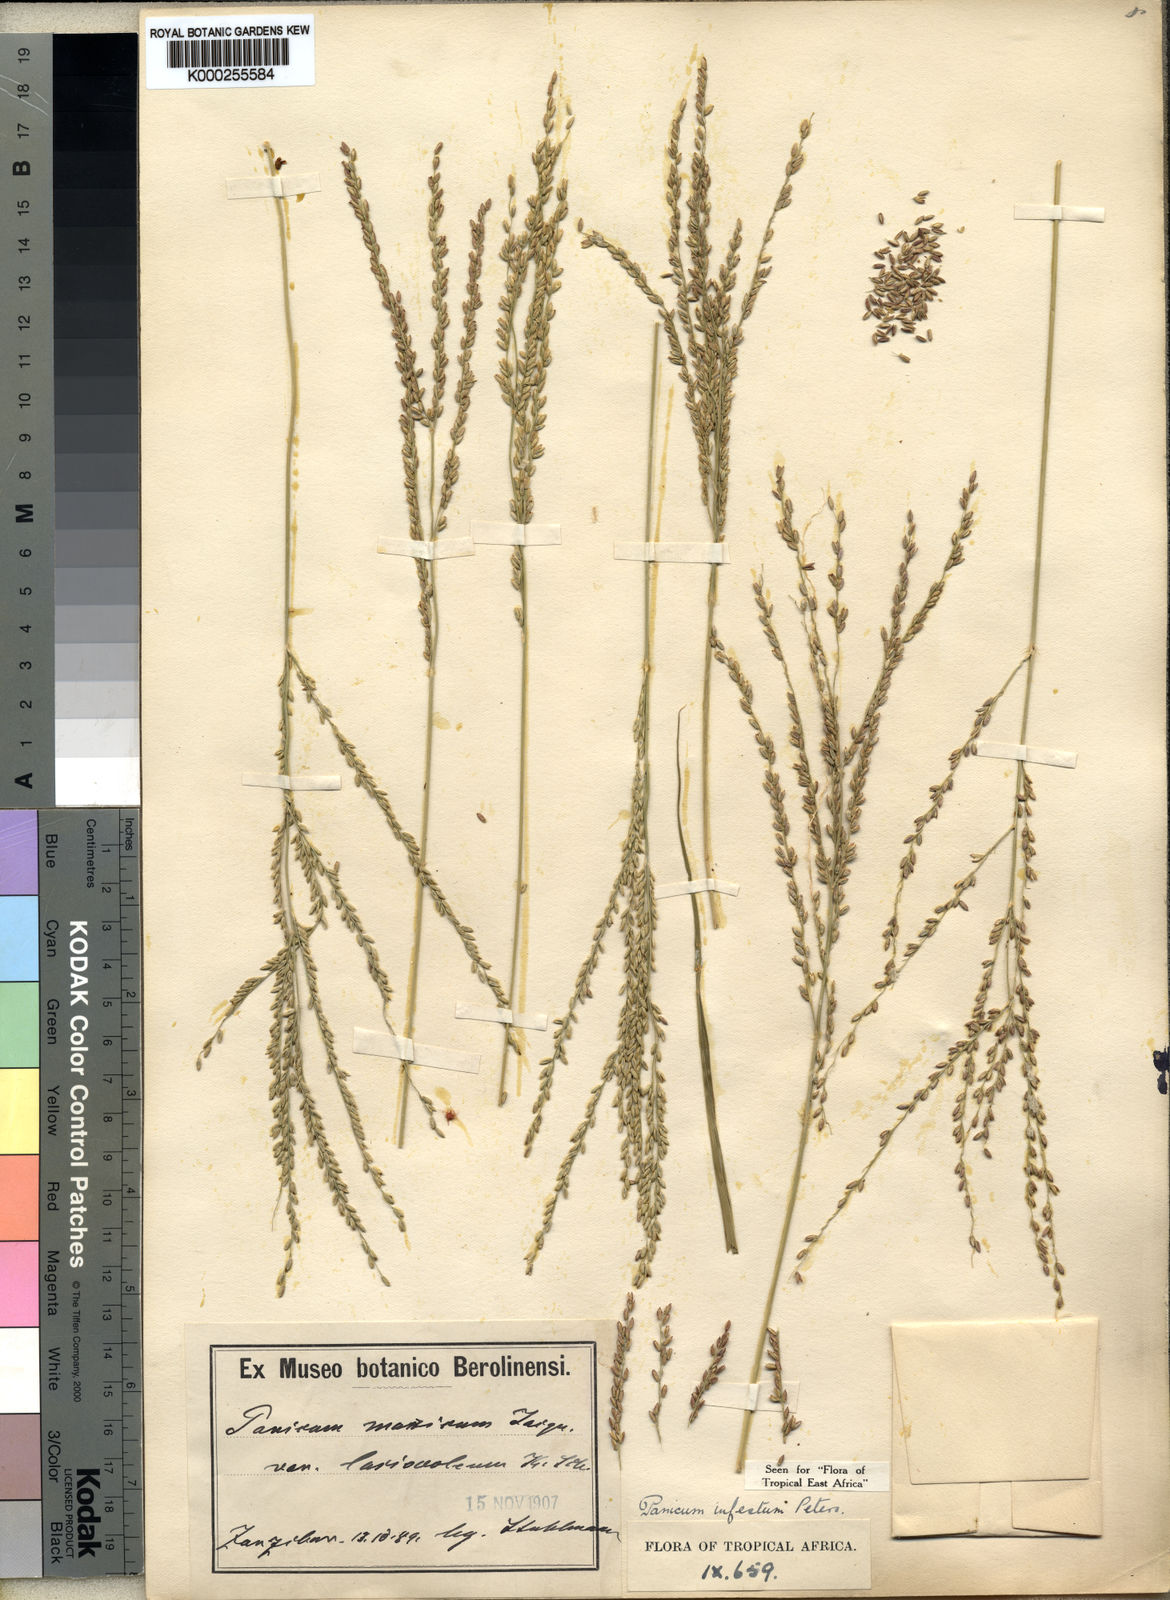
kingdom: Plantae
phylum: Tracheophyta
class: Liliopsida
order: Poales
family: Poaceae
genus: Panicum
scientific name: Panicum
